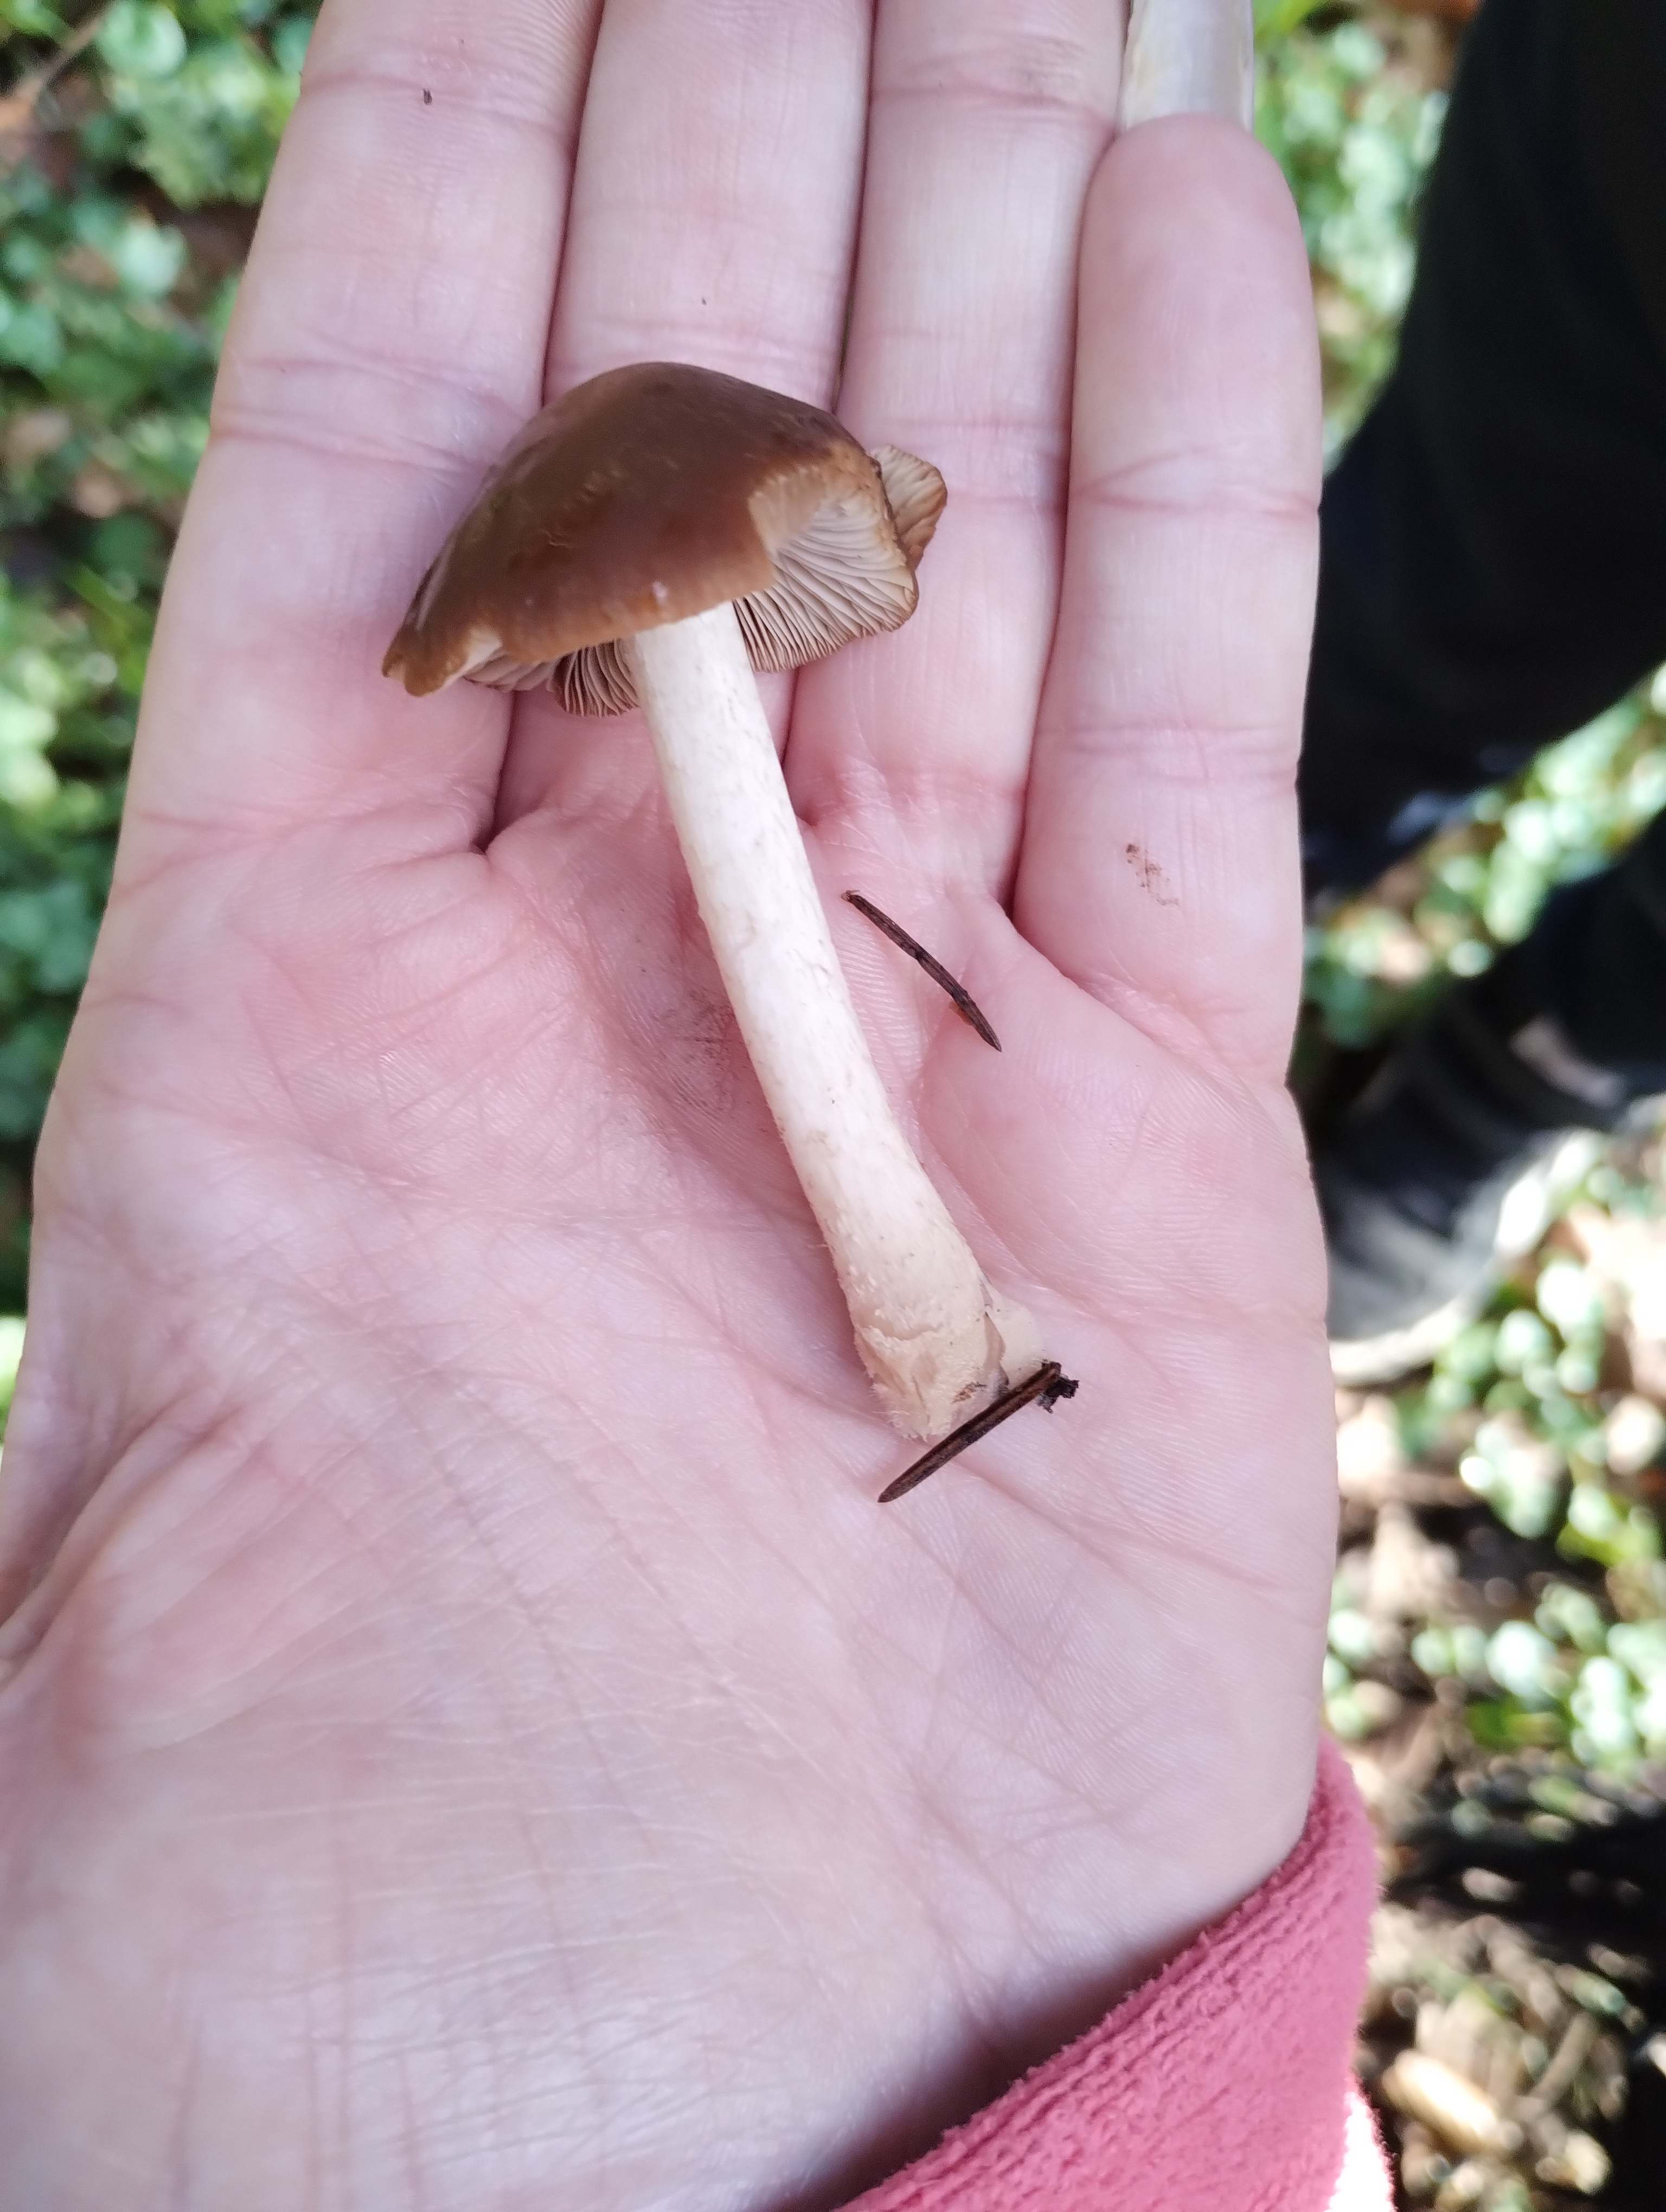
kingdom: Fungi
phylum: Basidiomycota
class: Agaricomycetes
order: Agaricales
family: Psathyrellaceae
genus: Psathyrella
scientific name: Psathyrella
